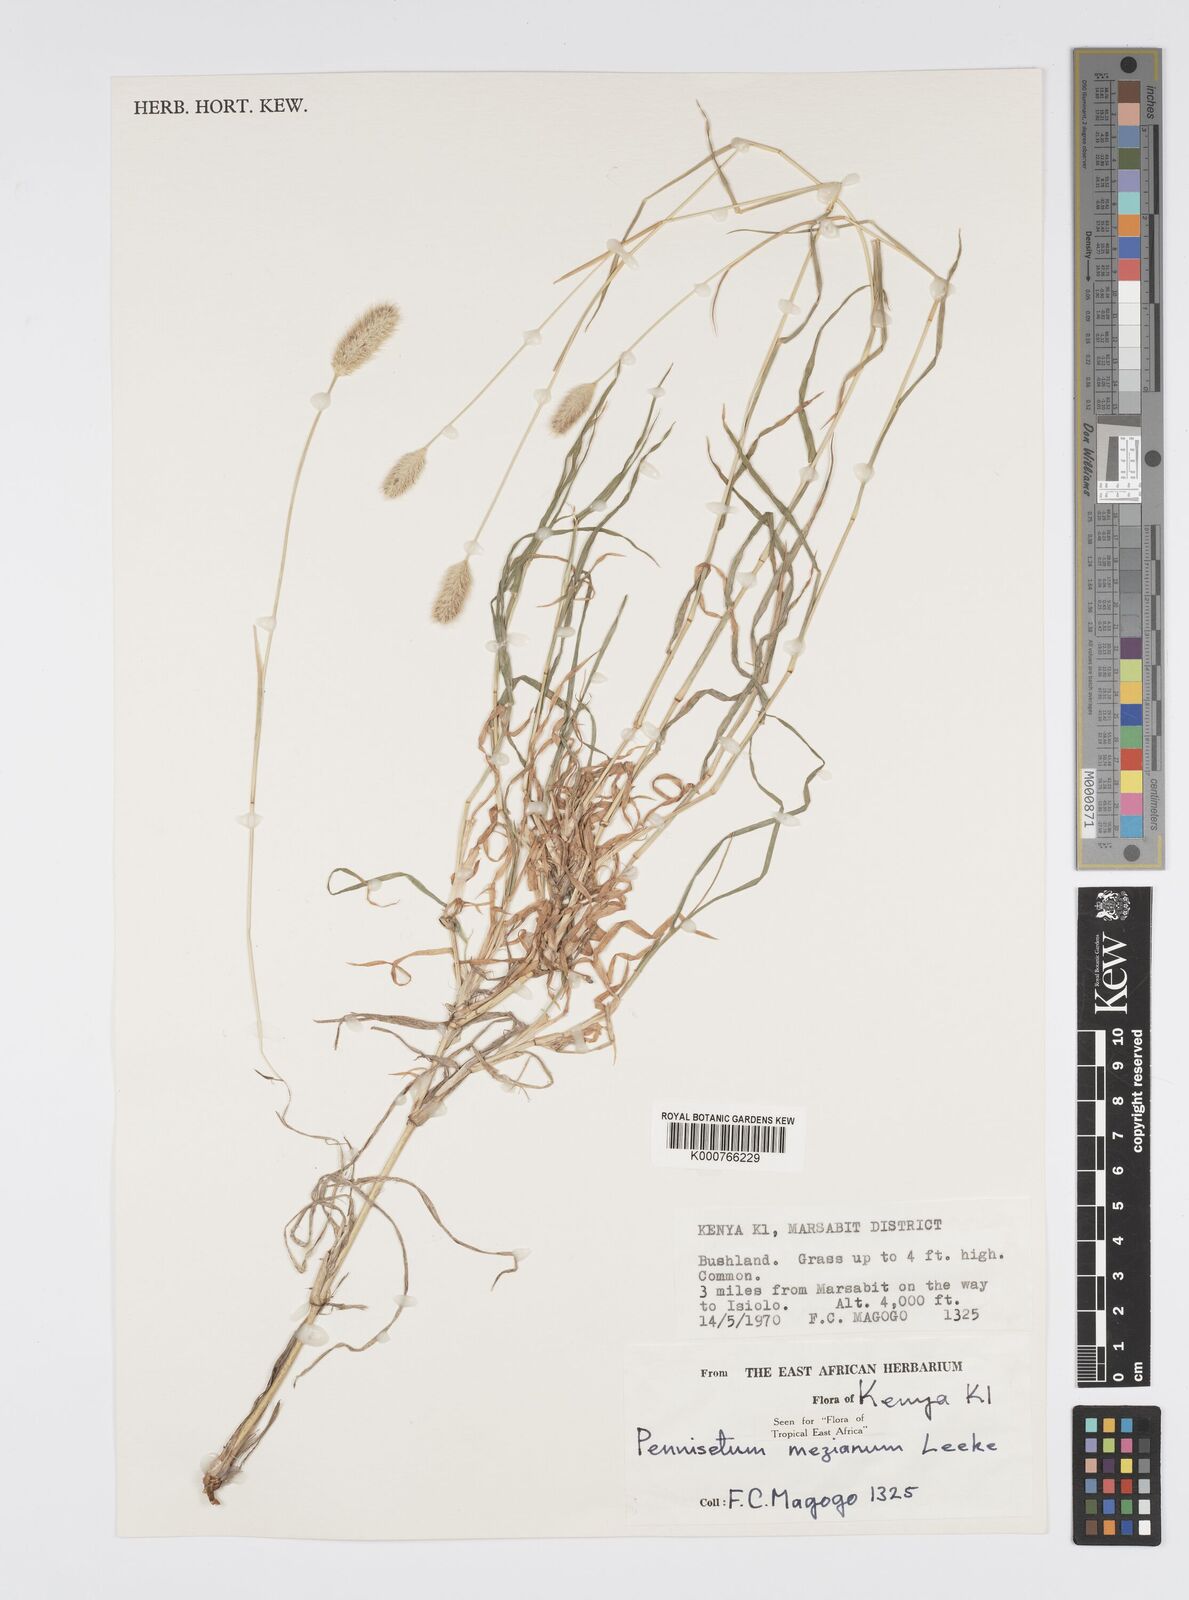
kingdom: Plantae
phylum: Tracheophyta
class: Liliopsida
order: Poales
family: Poaceae
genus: Cenchrus
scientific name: Cenchrus mezianus
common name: Bamboo grass
